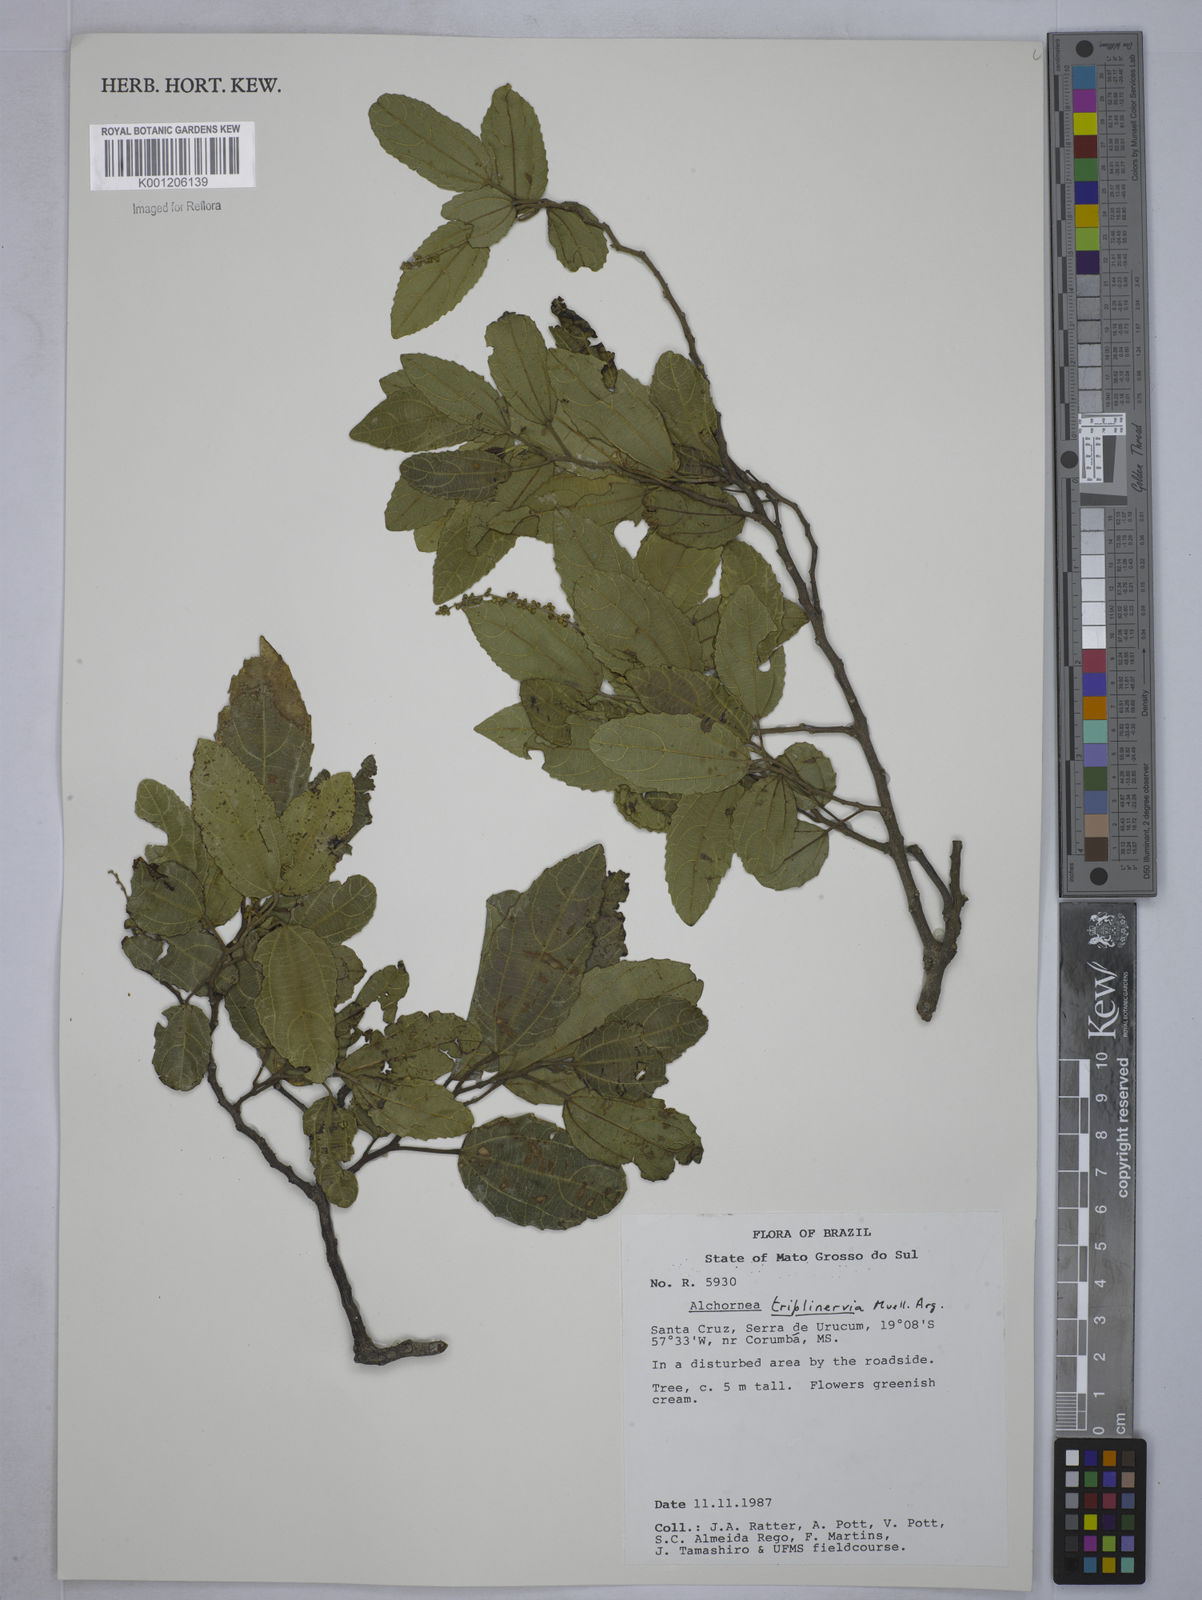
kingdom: Plantae
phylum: Tracheophyta
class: Magnoliopsida
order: Malpighiales
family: Euphorbiaceae
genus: Alchornea
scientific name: Alchornea
